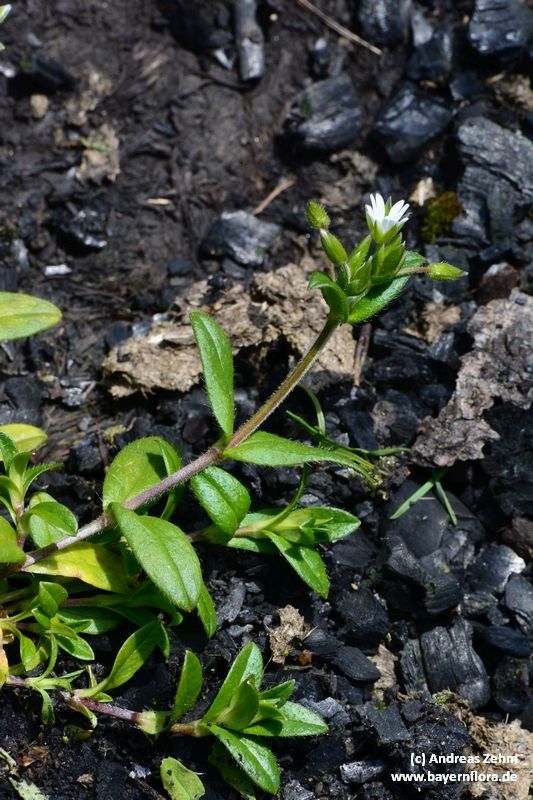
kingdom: Plantae
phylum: Tracheophyta
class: Magnoliopsida
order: Caryophyllales
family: Caryophyllaceae
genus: Cerastium
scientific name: Cerastium holosteoides
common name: Big chickweed
